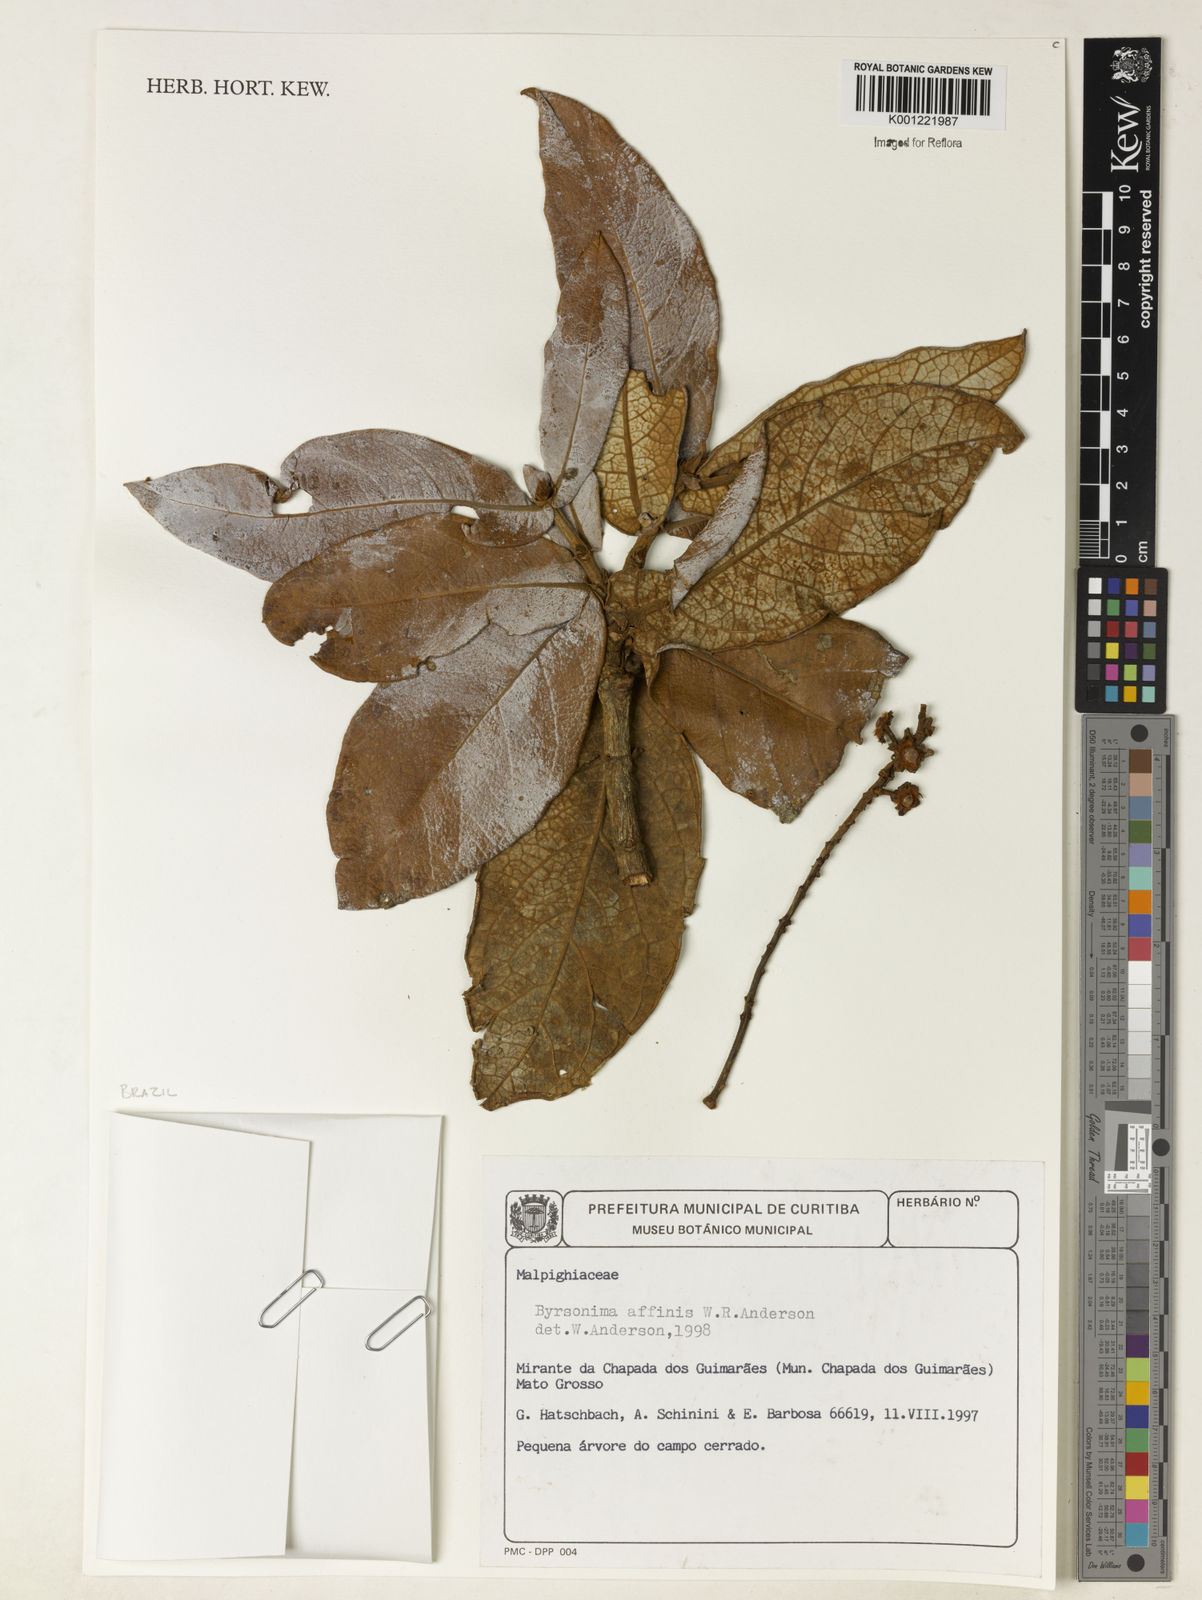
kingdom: Plantae
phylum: Tracheophyta
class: Magnoliopsida
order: Malpighiales
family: Malpighiaceae
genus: Byrsonima
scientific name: Byrsonima affinis
